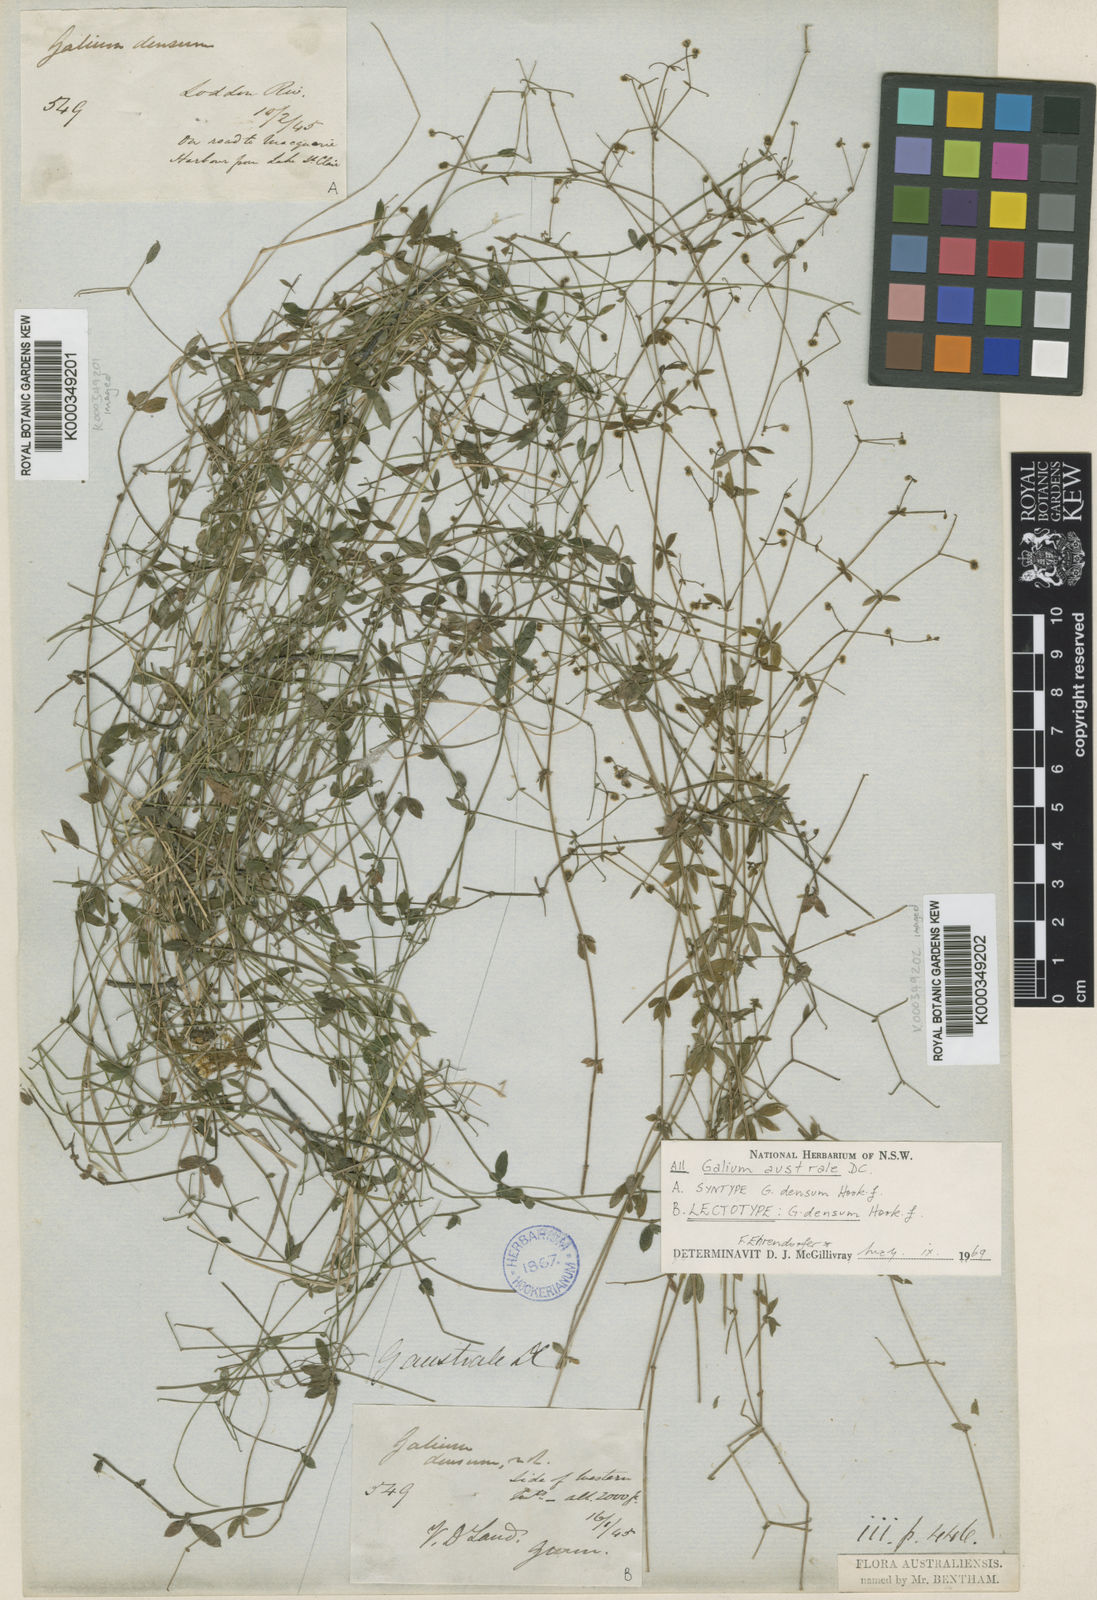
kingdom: Plantae
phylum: Tracheophyta
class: Magnoliopsida
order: Gentianales
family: Rubiaceae
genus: Galium
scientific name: Galium australe
